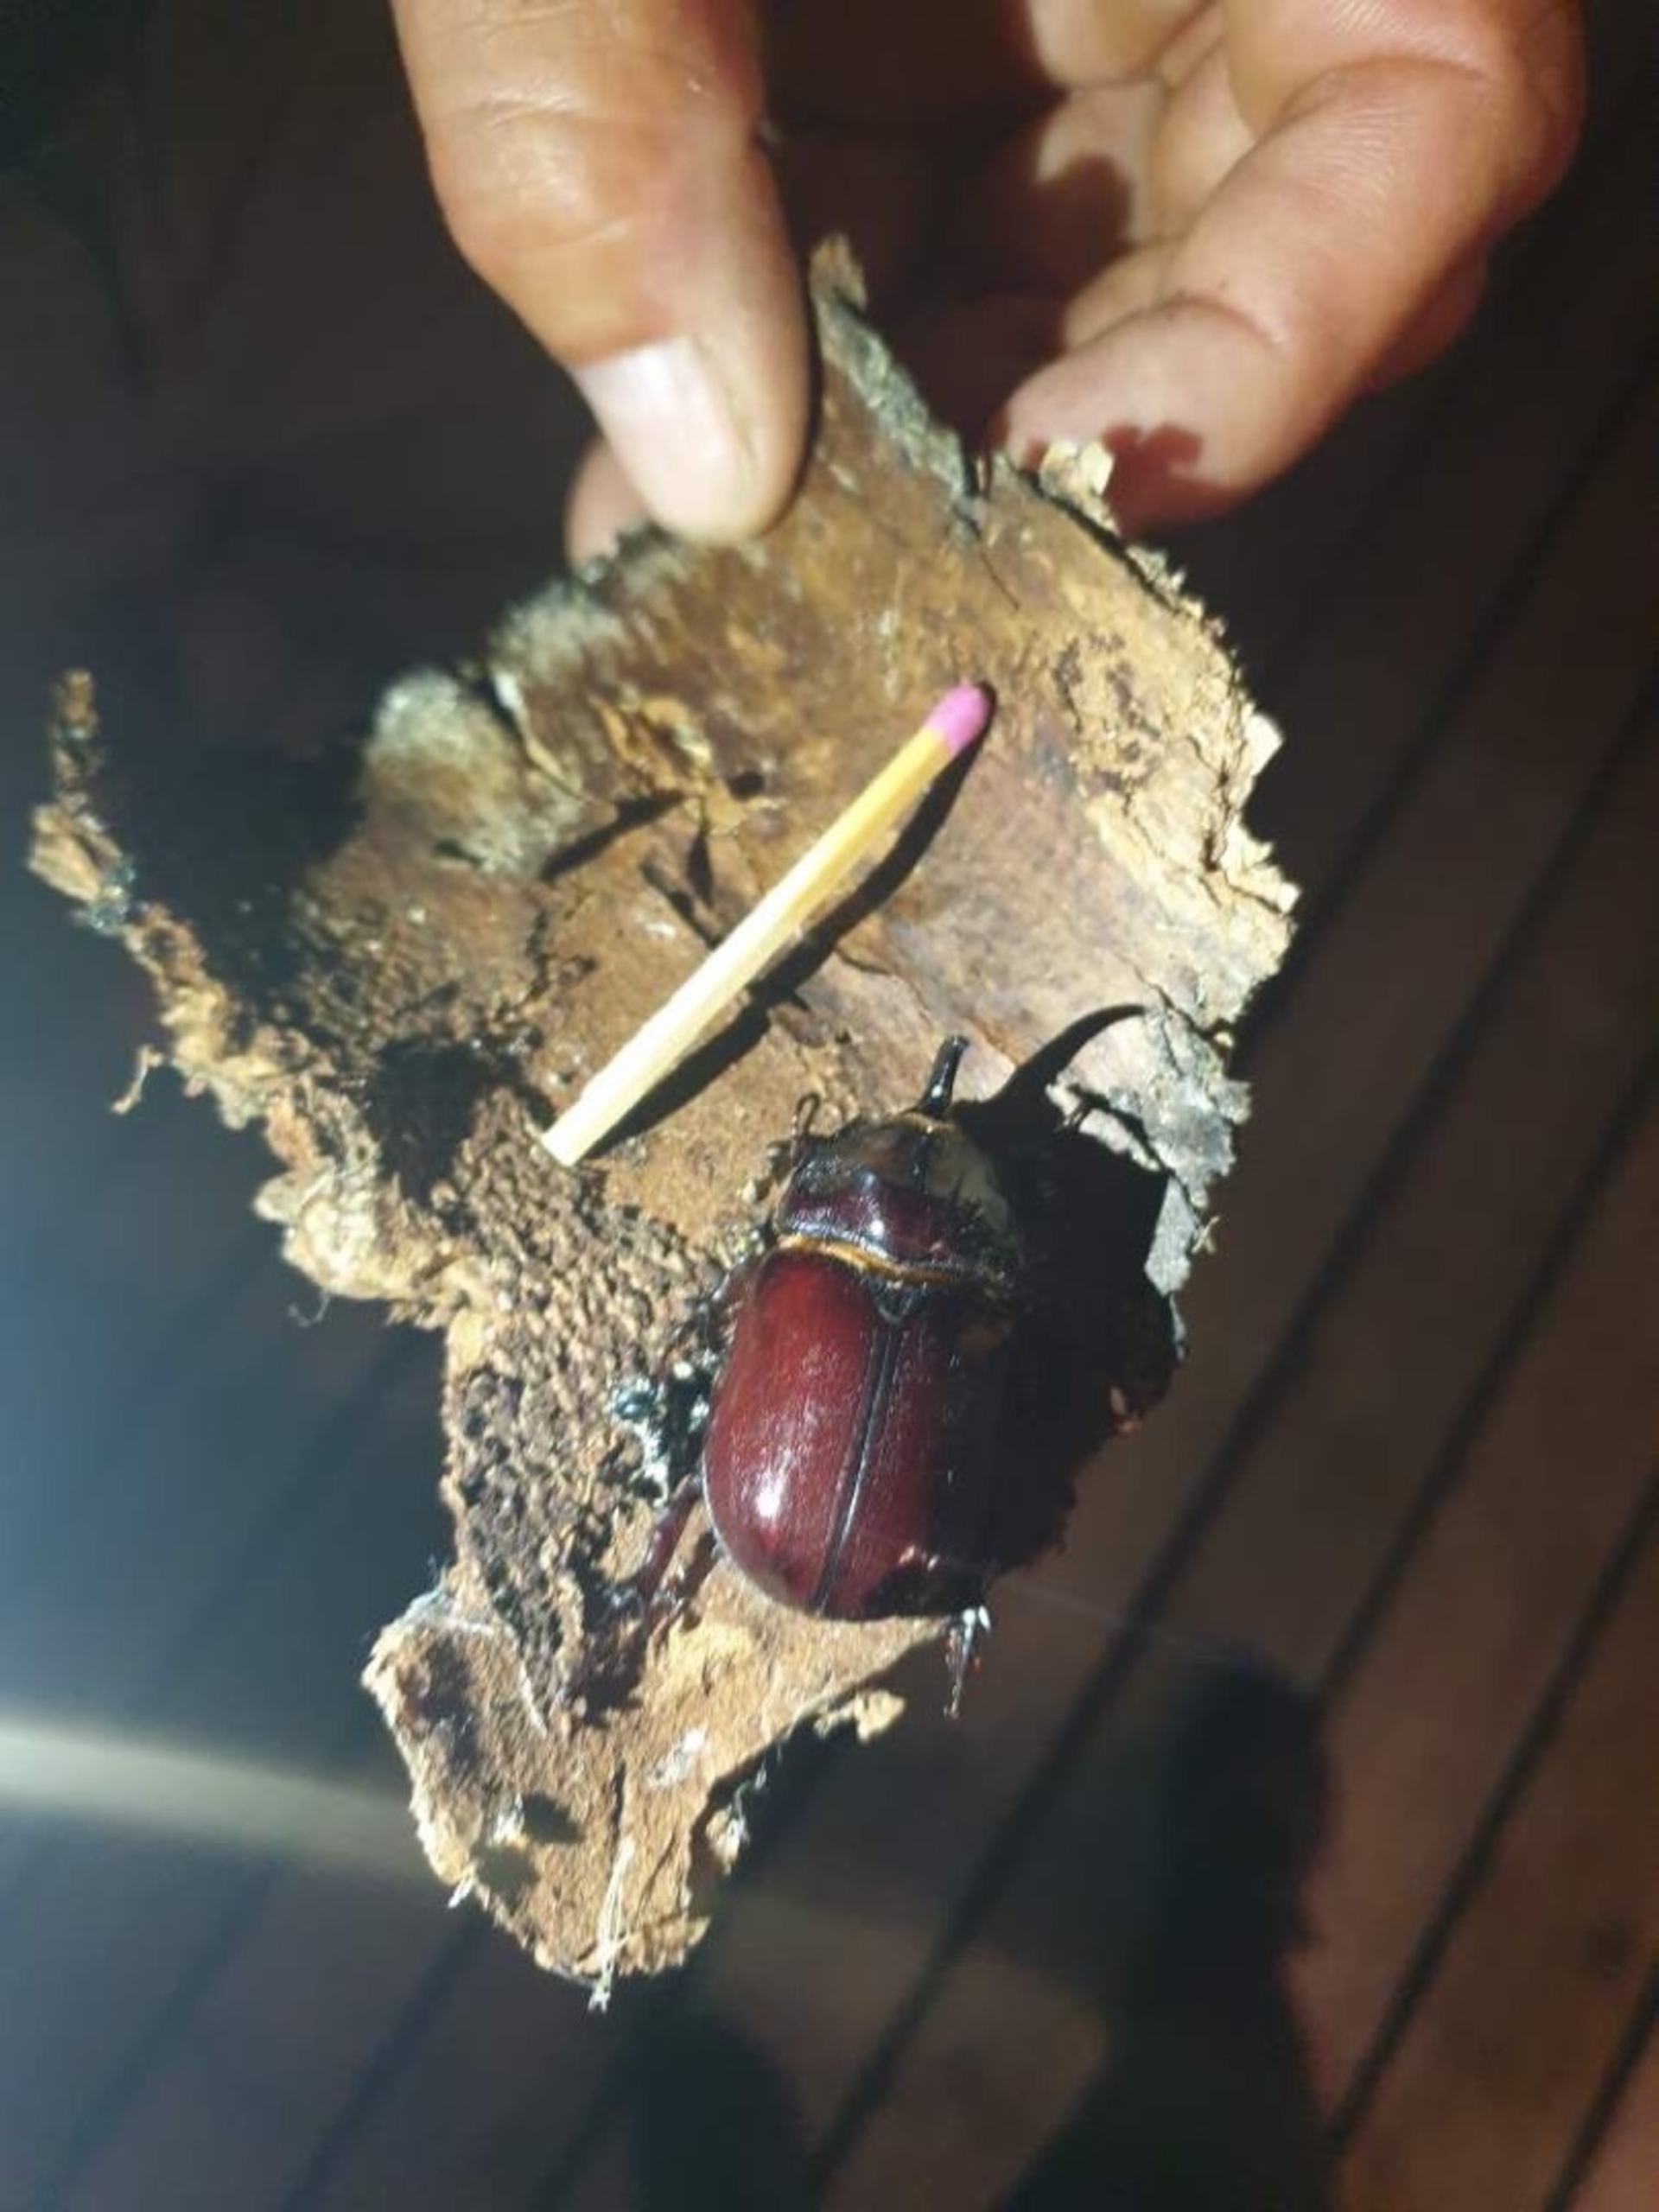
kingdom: Animalia
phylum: Arthropoda
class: Insecta
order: Coleoptera
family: Scarabaeidae
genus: Oryctes
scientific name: Oryctes nasicornis
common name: Næsehornsbille
